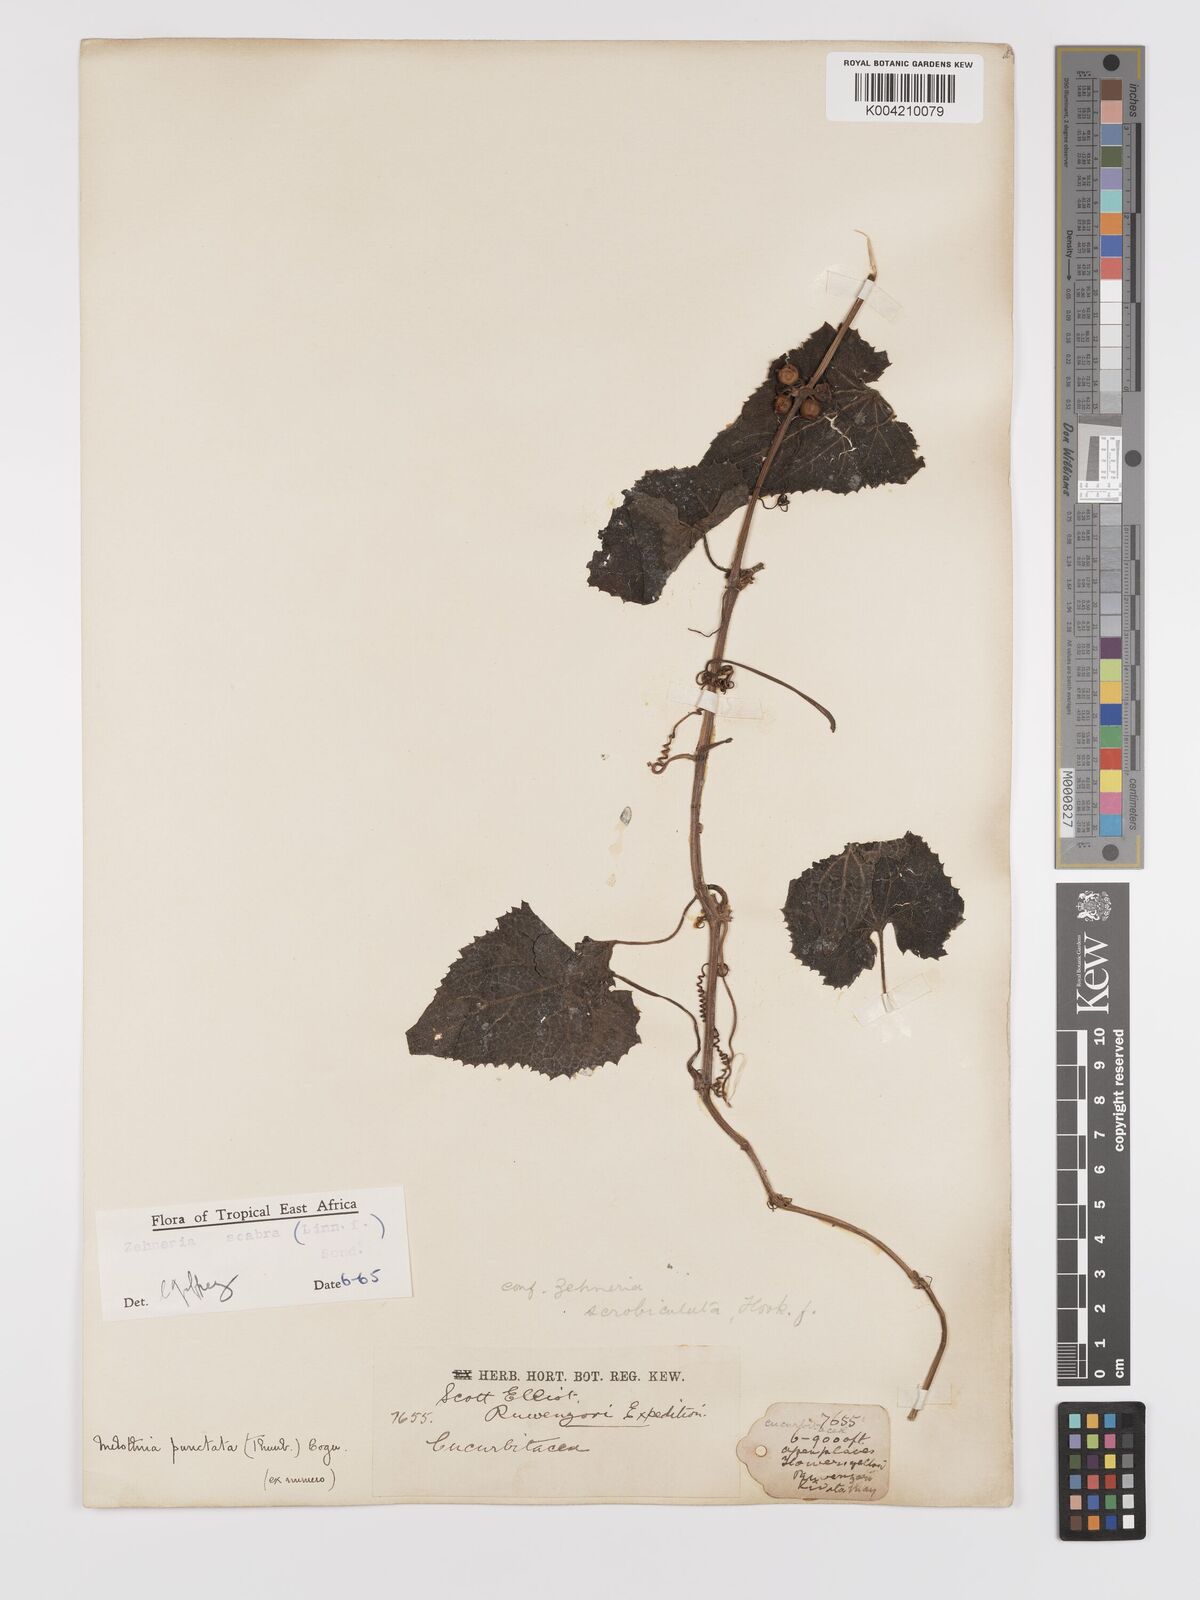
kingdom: Plantae
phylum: Tracheophyta
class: Magnoliopsida
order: Cucurbitales
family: Cucurbitaceae
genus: Zehneria
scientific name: Zehneria scabra
